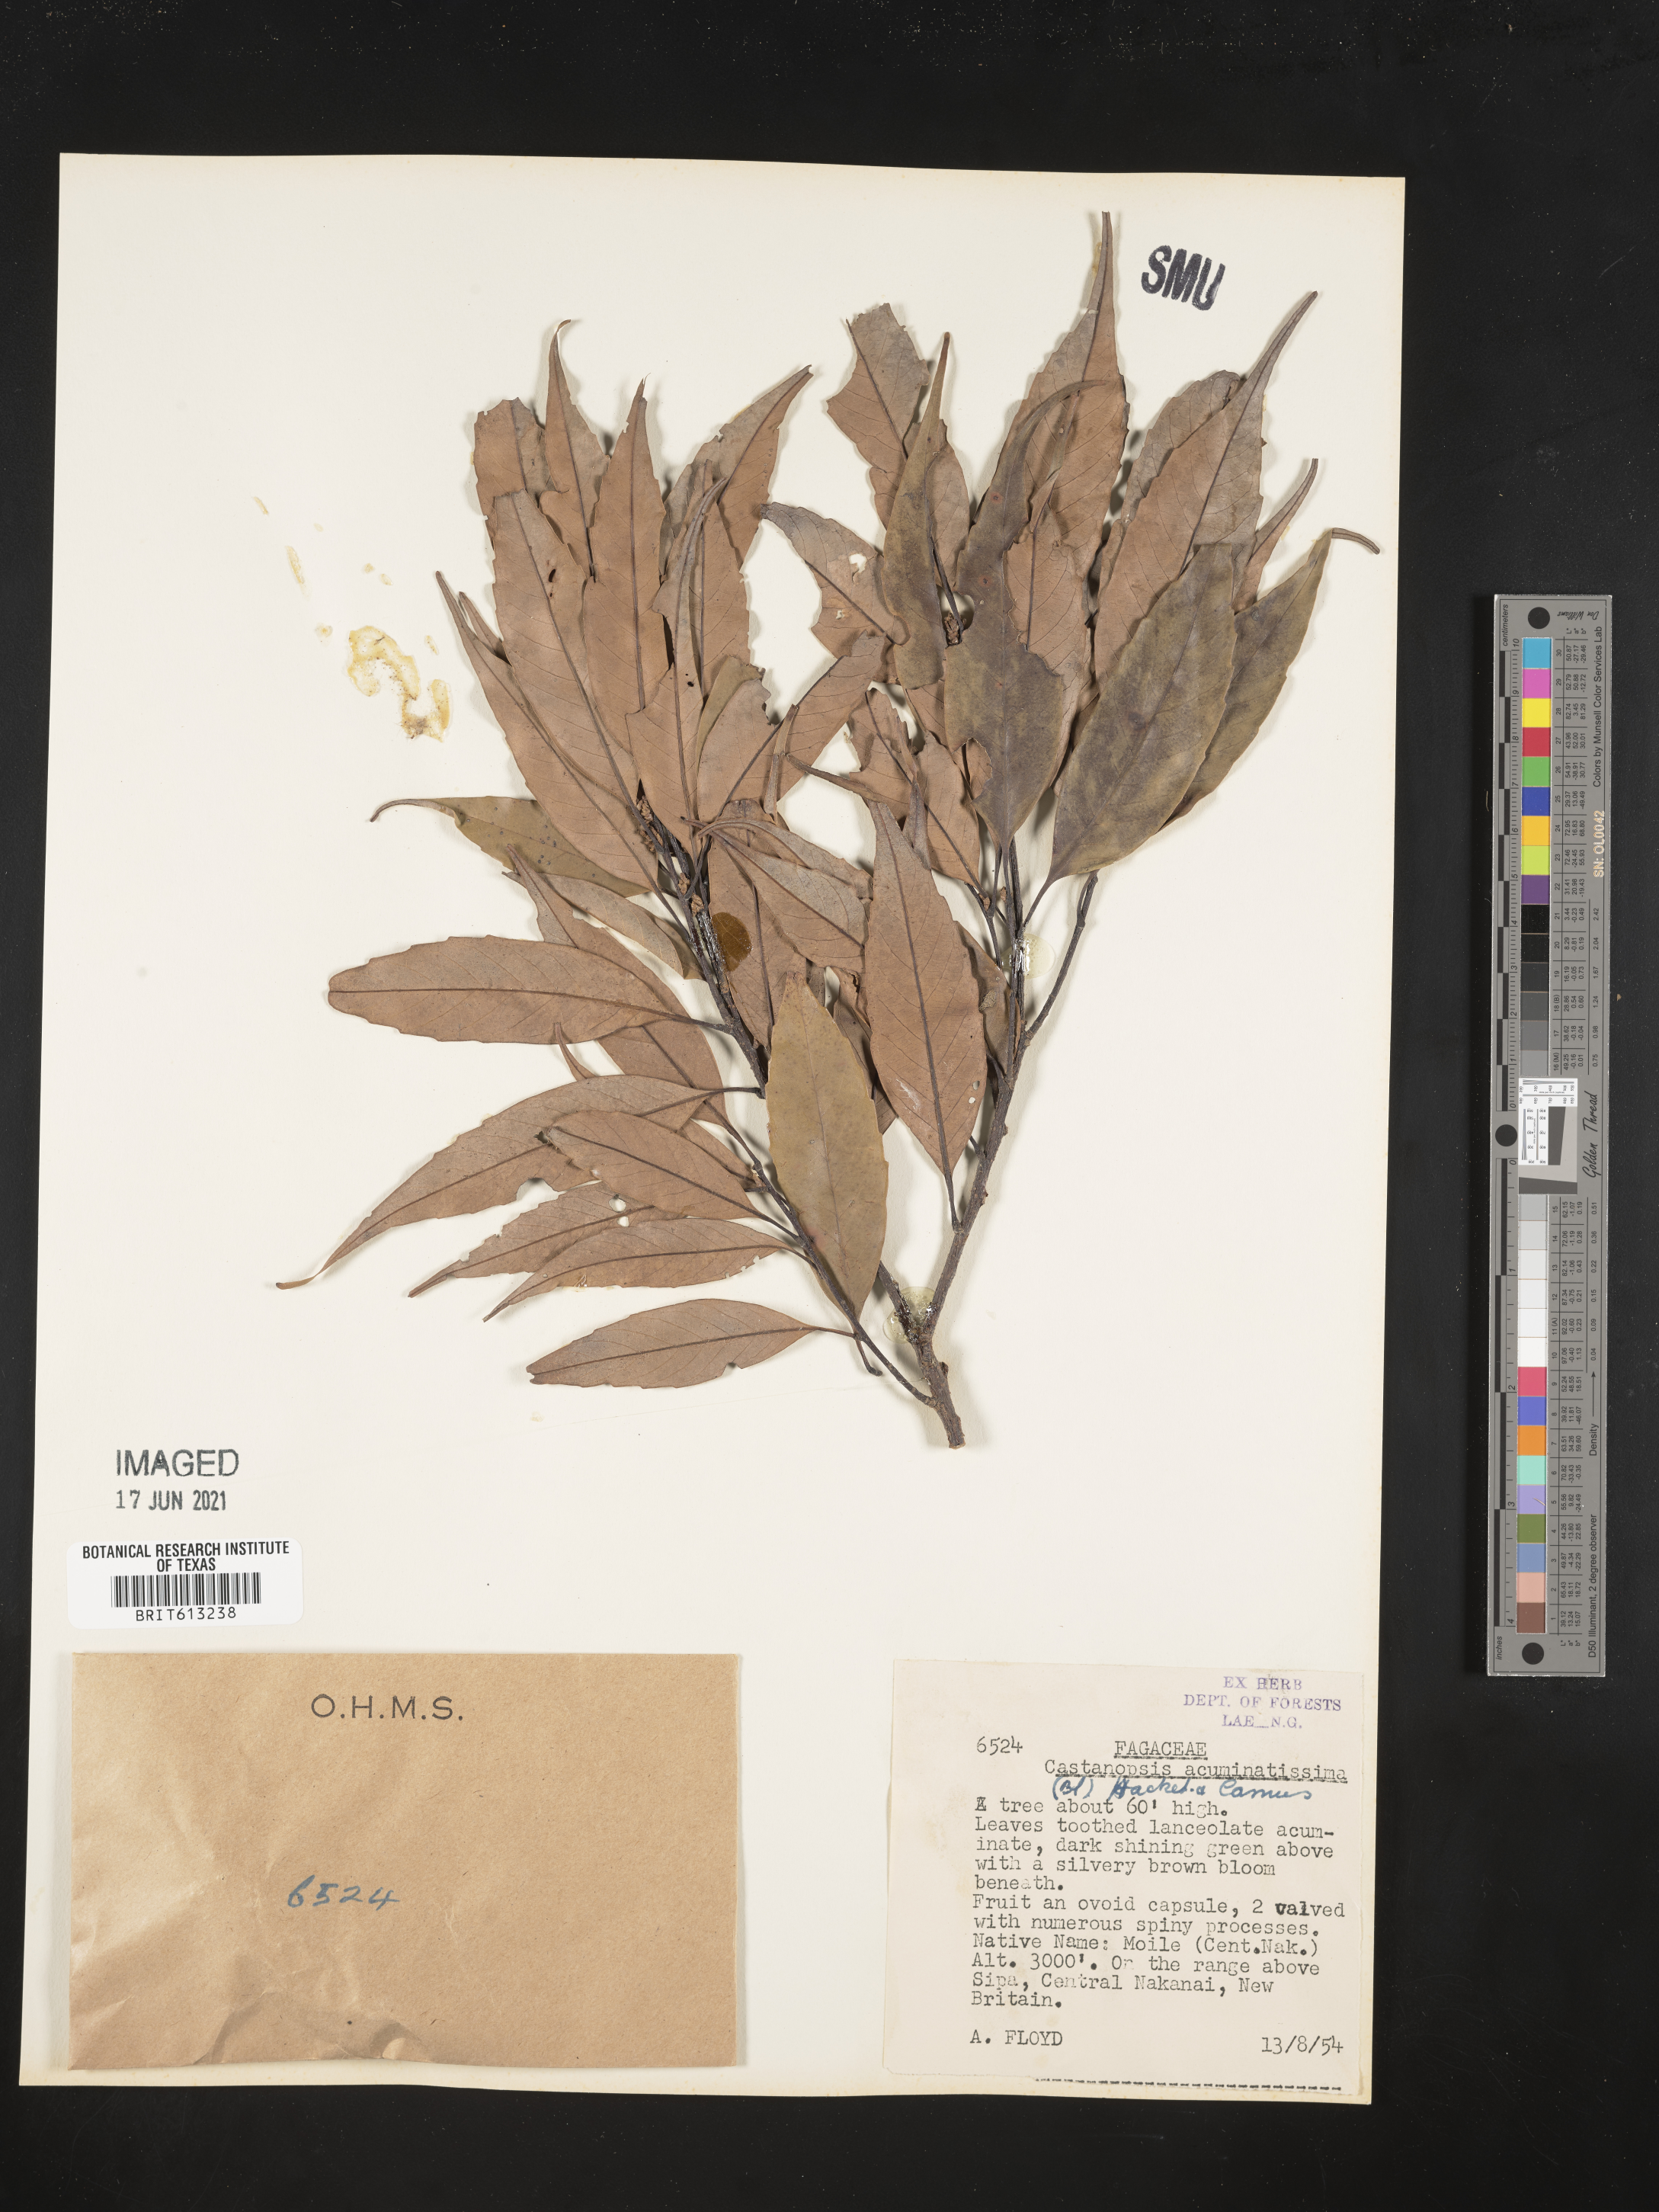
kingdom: Plantae
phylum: Tracheophyta
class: Magnoliopsida
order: Fagales
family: Fagaceae
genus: Castanopsis
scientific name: Castanopsis acuminatissima
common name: Papua new guinea oak
